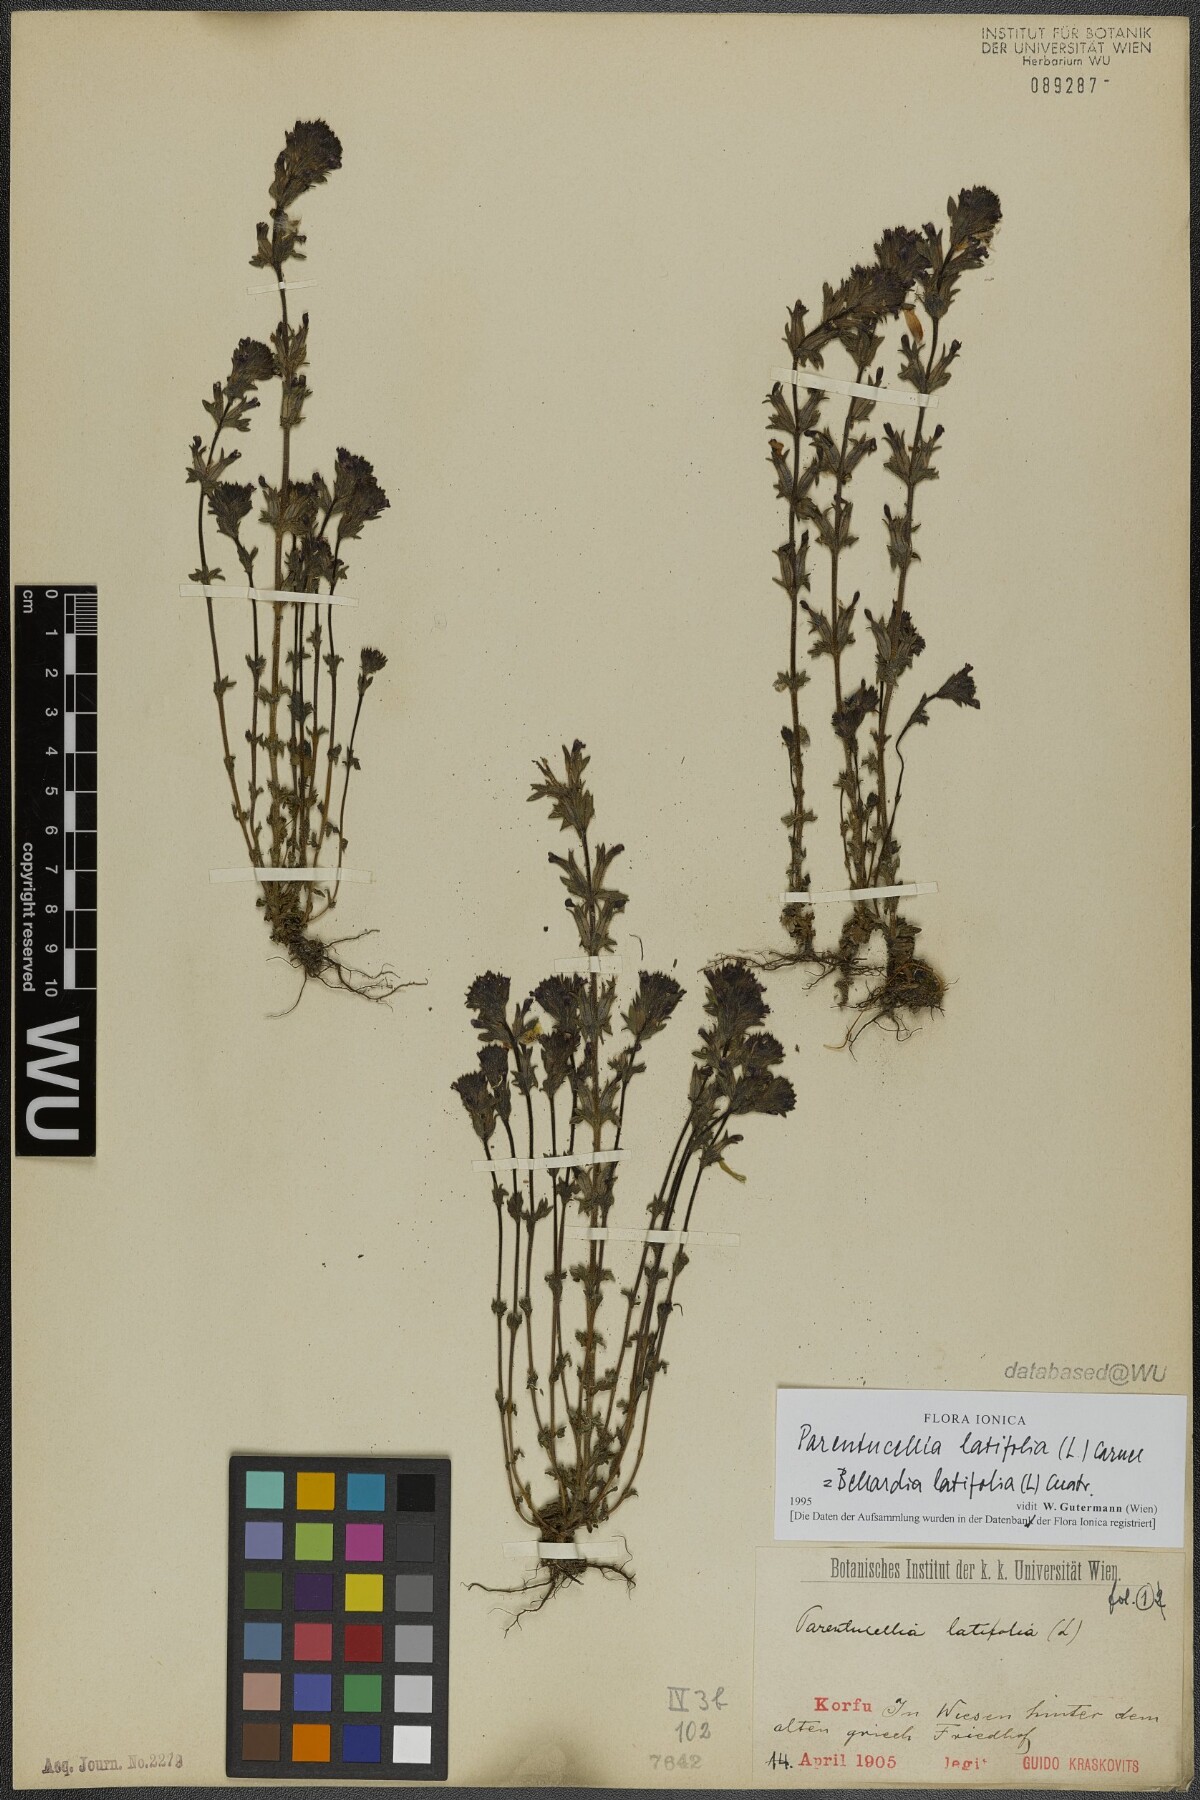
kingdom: Plantae
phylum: Tracheophyta
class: Magnoliopsida
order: Lamiales
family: Orobanchaceae
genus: Parentucellia
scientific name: Parentucellia latifolia
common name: Broadleaf glandweed
